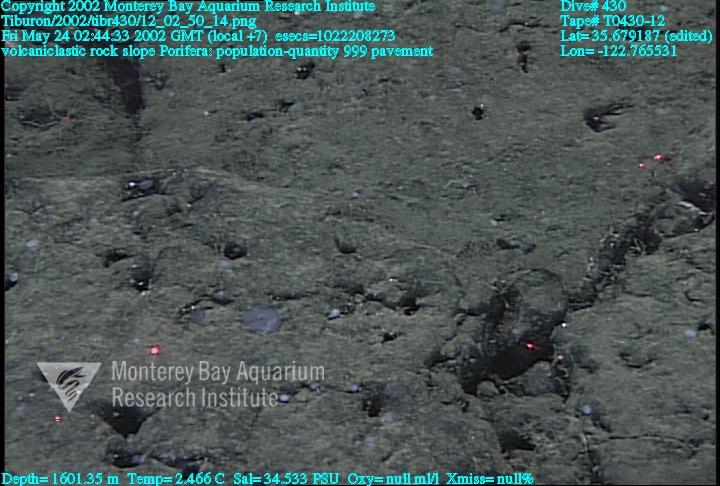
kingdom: Animalia
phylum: Porifera
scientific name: Porifera
